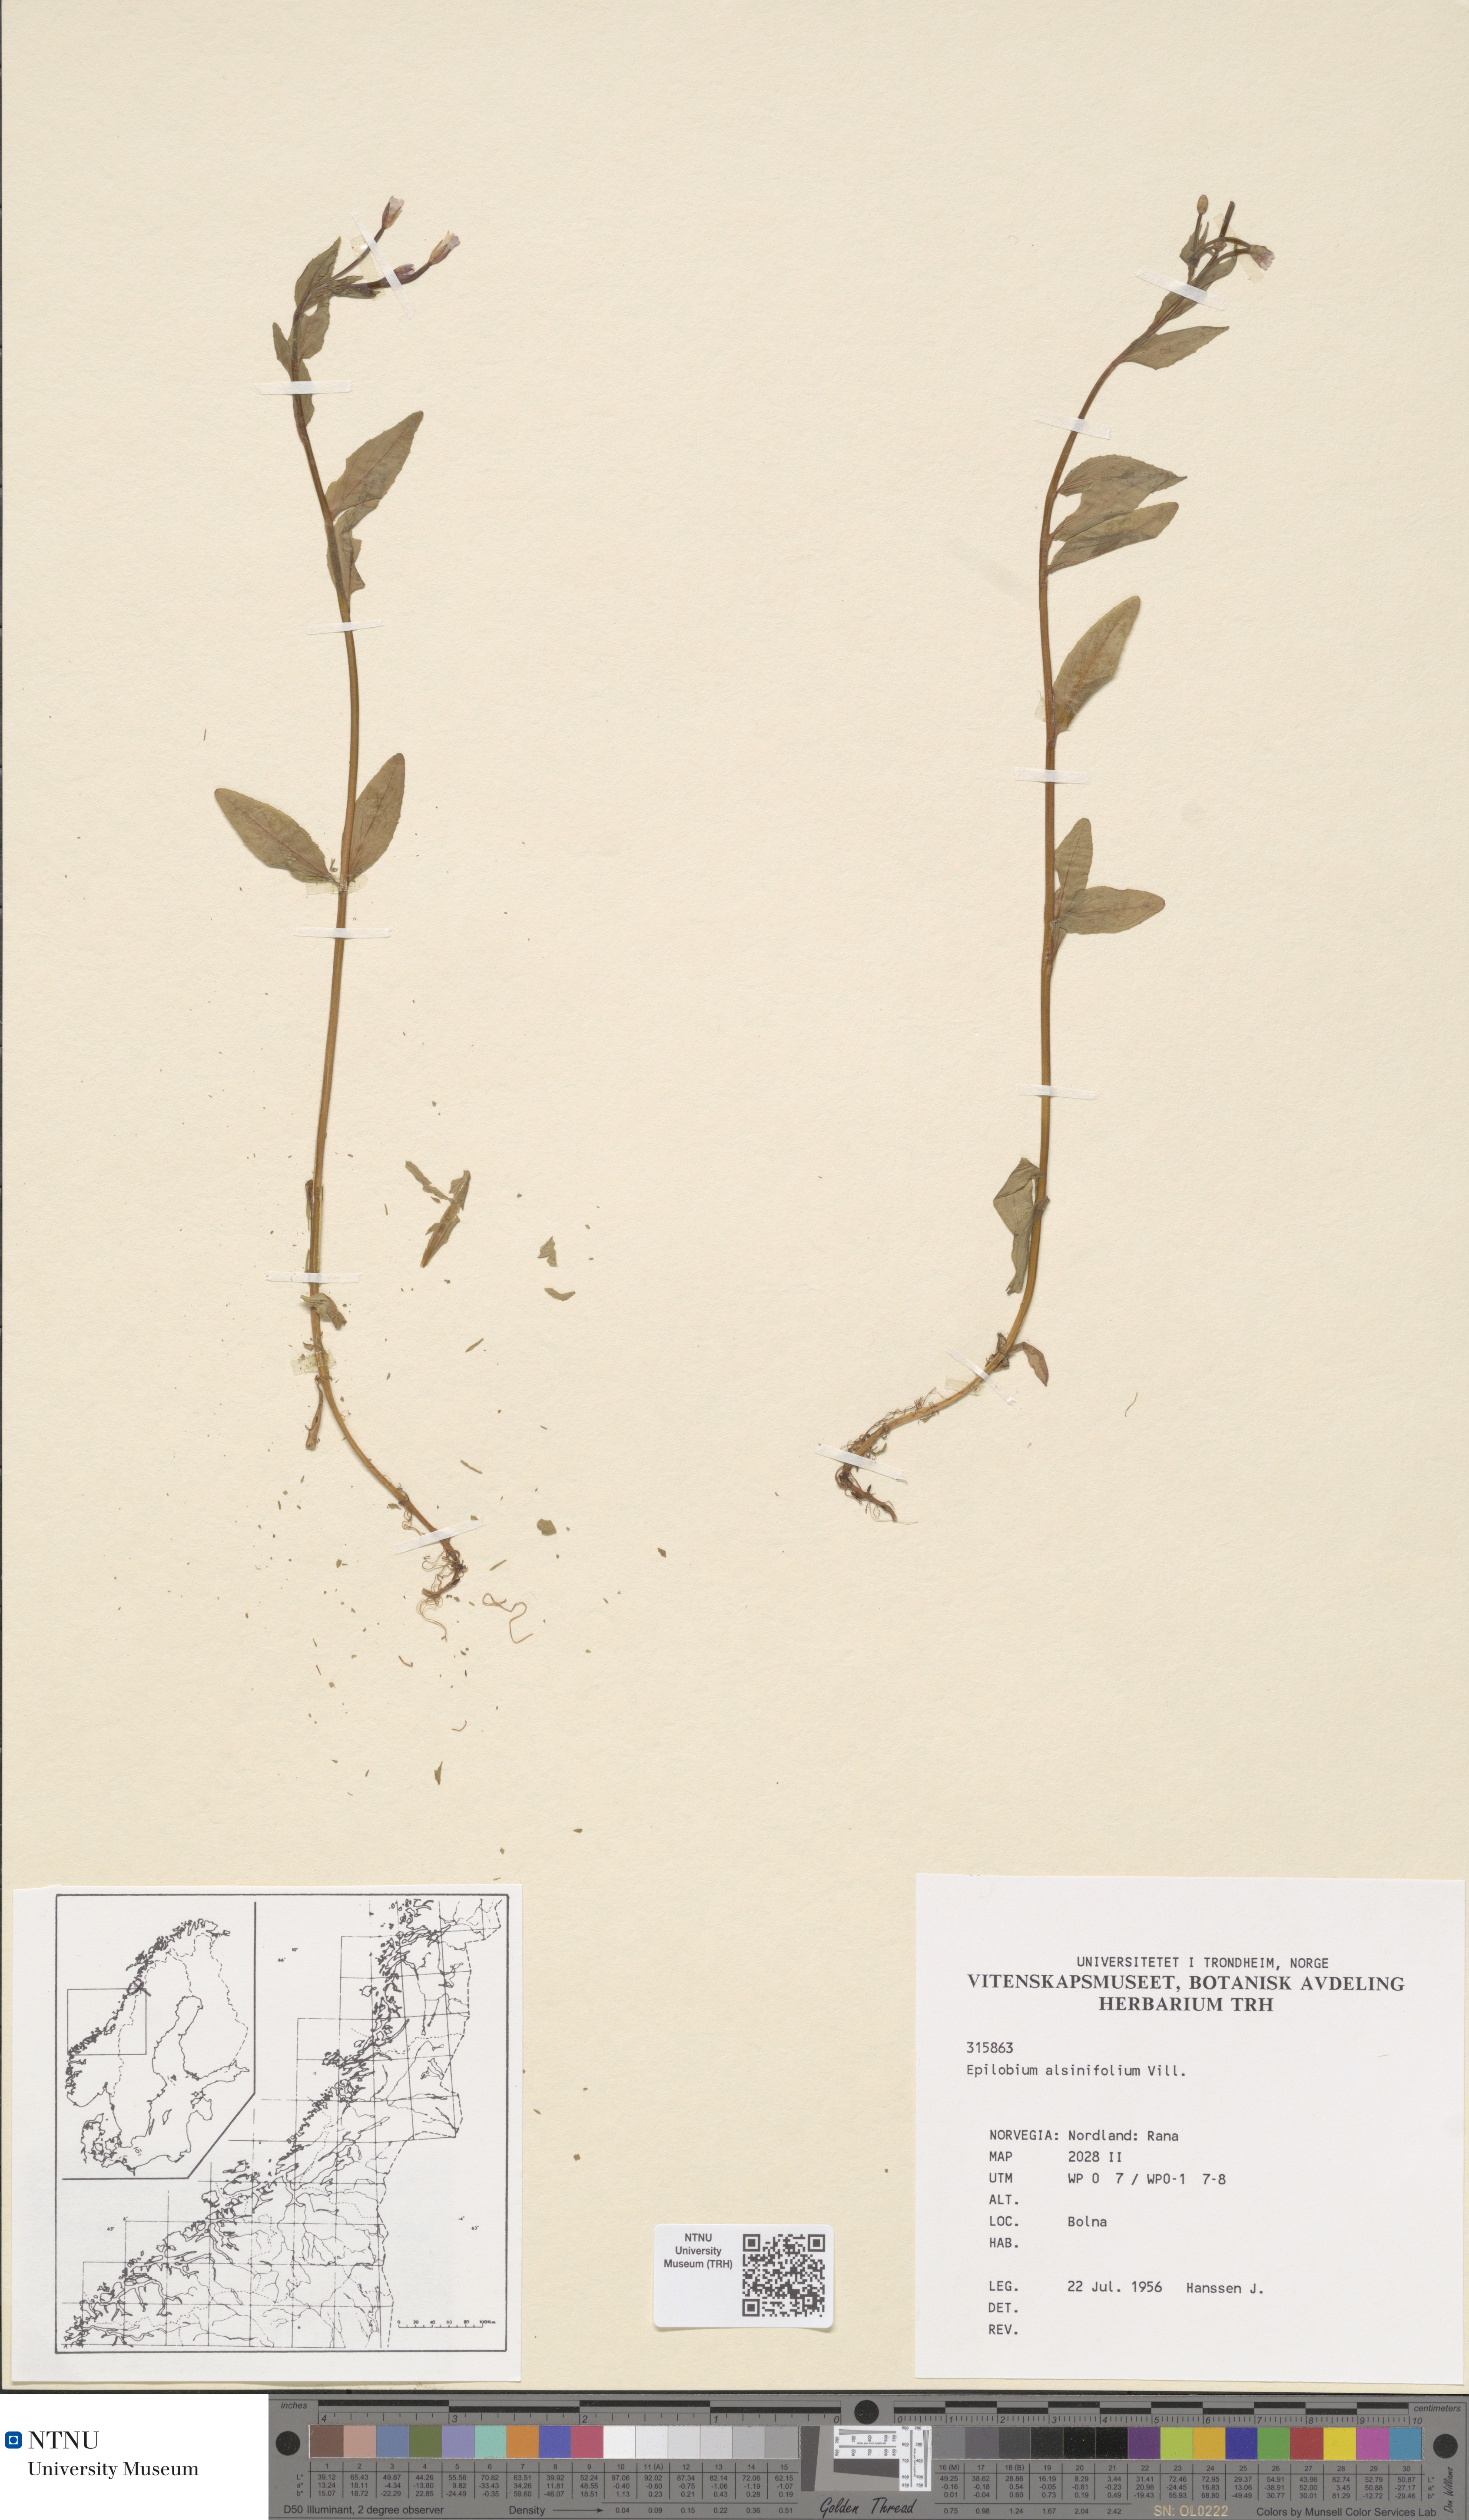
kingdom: Plantae
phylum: Tracheophyta
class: Magnoliopsida
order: Myrtales
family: Onagraceae
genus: Epilobium
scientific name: Epilobium alsinifolium
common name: Chickweed willowherb
